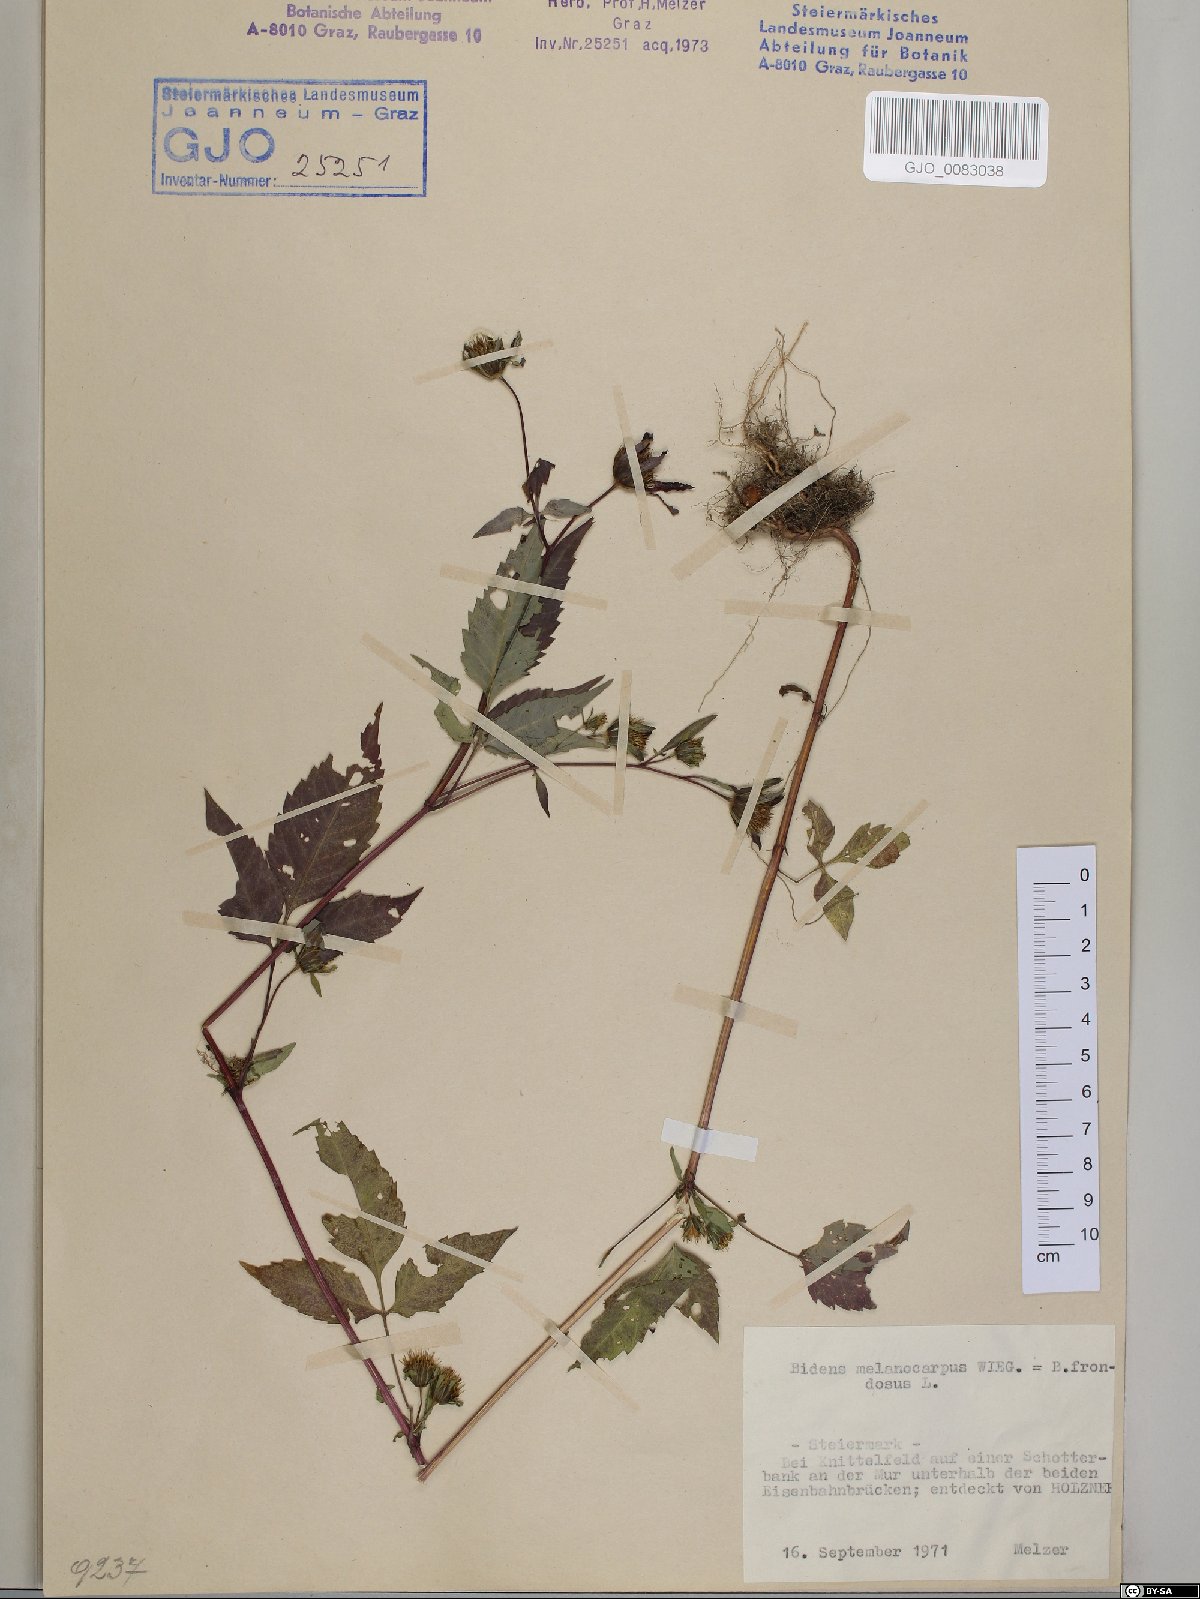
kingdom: Plantae
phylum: Tracheophyta
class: Magnoliopsida
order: Asterales
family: Asteraceae
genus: Bidens
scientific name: Bidens frondosa
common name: Beggarticks
